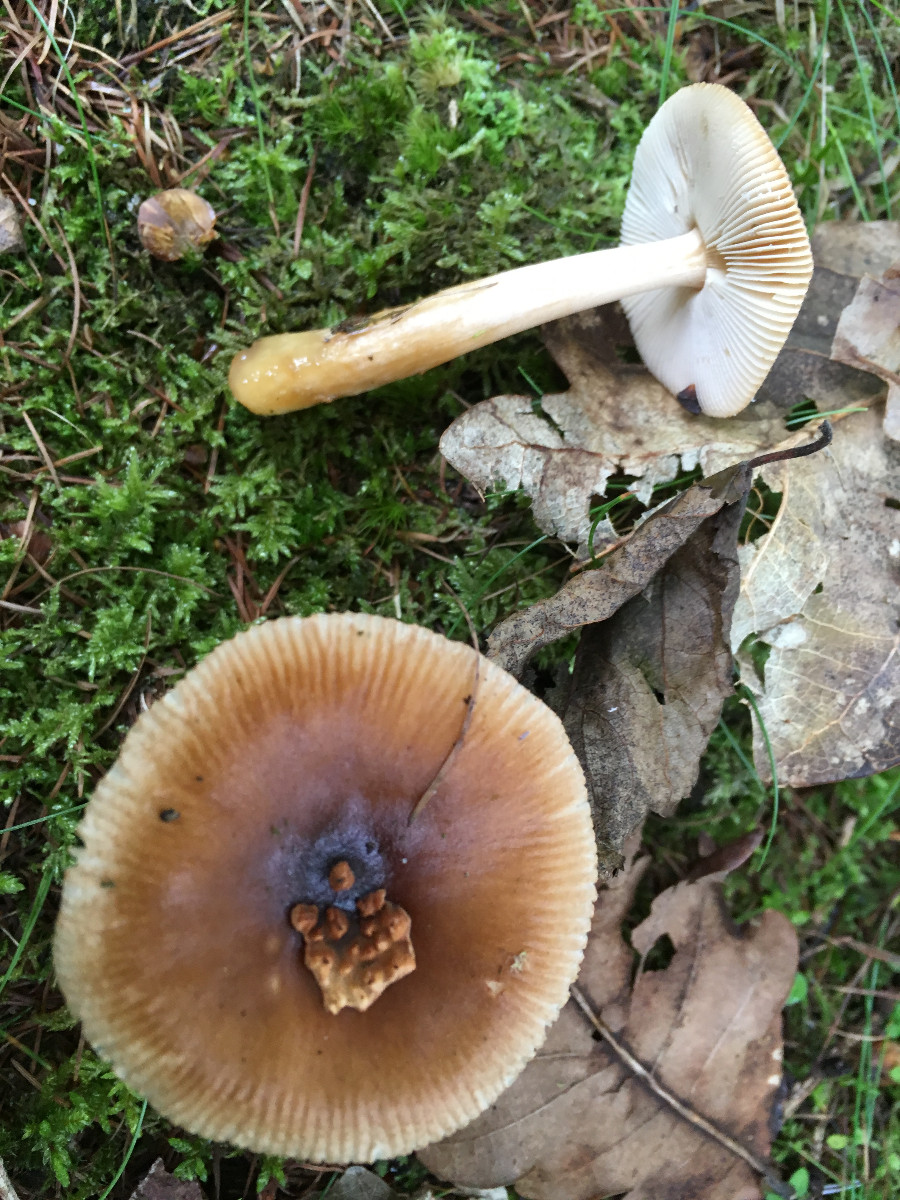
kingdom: Fungi
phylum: Basidiomycota
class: Agaricomycetes
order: Agaricales
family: Amanitaceae
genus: Amanita
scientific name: Amanita fulva
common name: brun kam-fluesvamp
